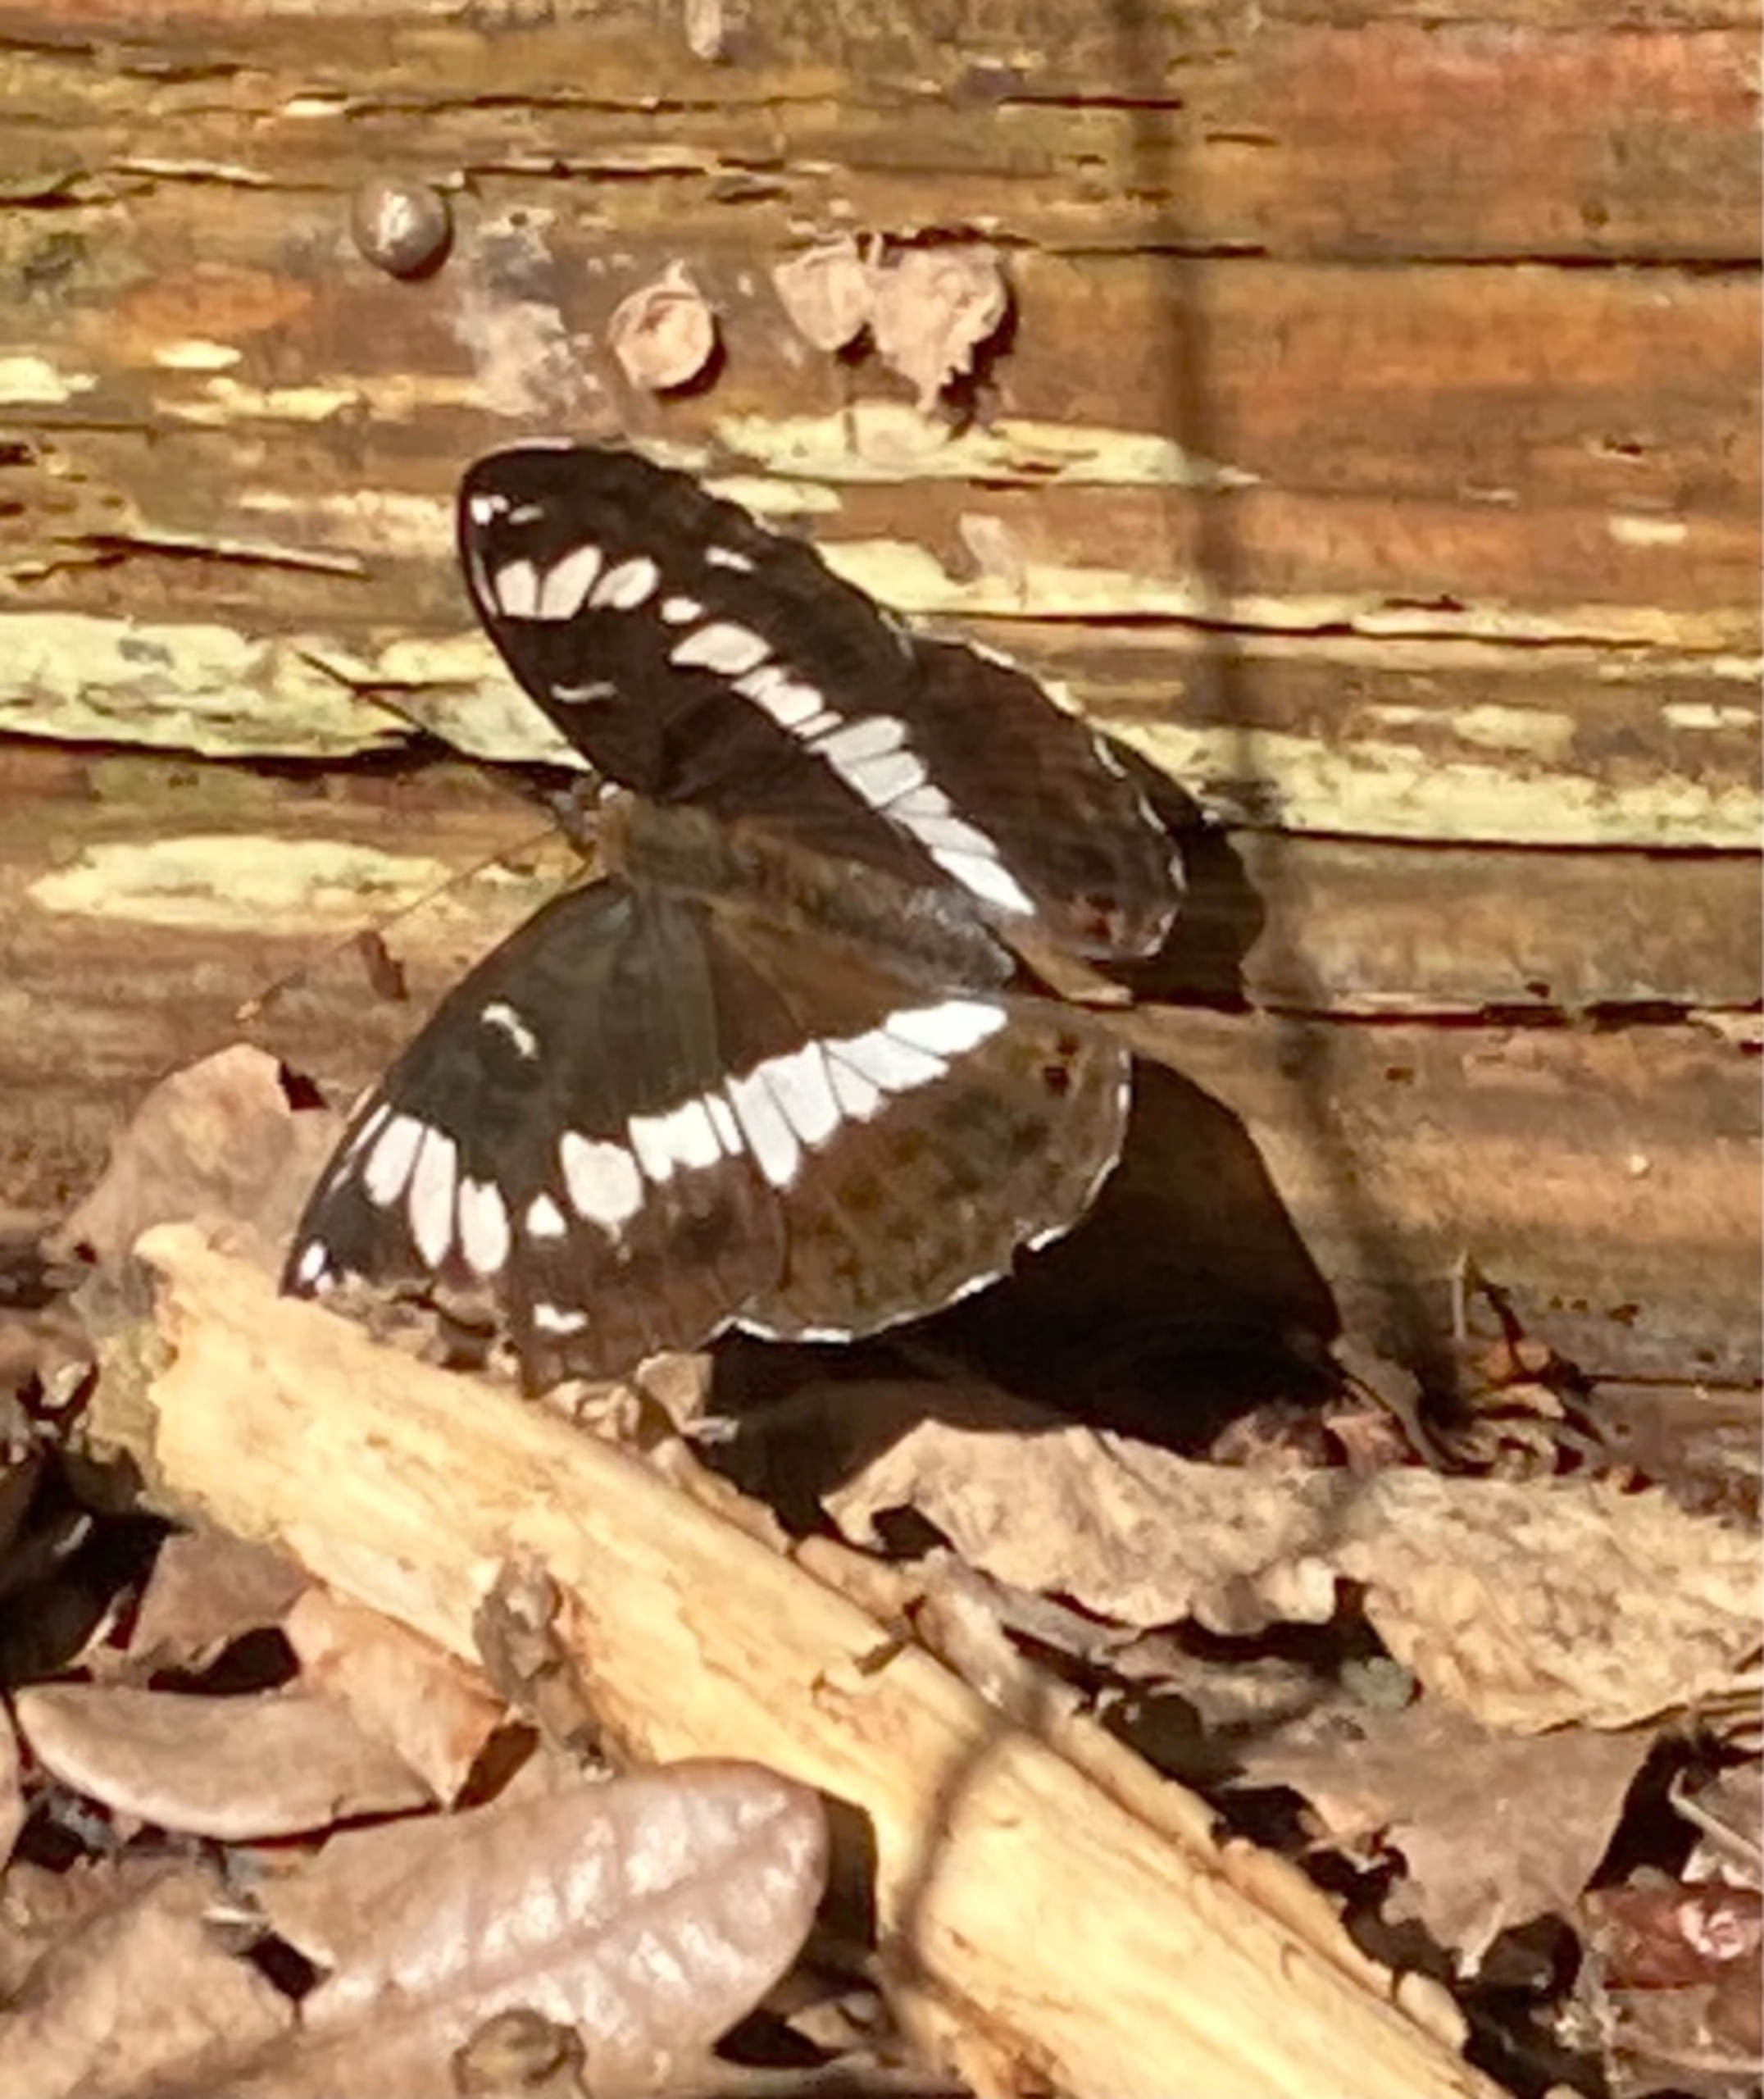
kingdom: Animalia
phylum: Arthropoda
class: Insecta
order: Lepidoptera
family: Nymphalidae
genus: Ladoga
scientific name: Ladoga camilla
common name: Hvid admiral
